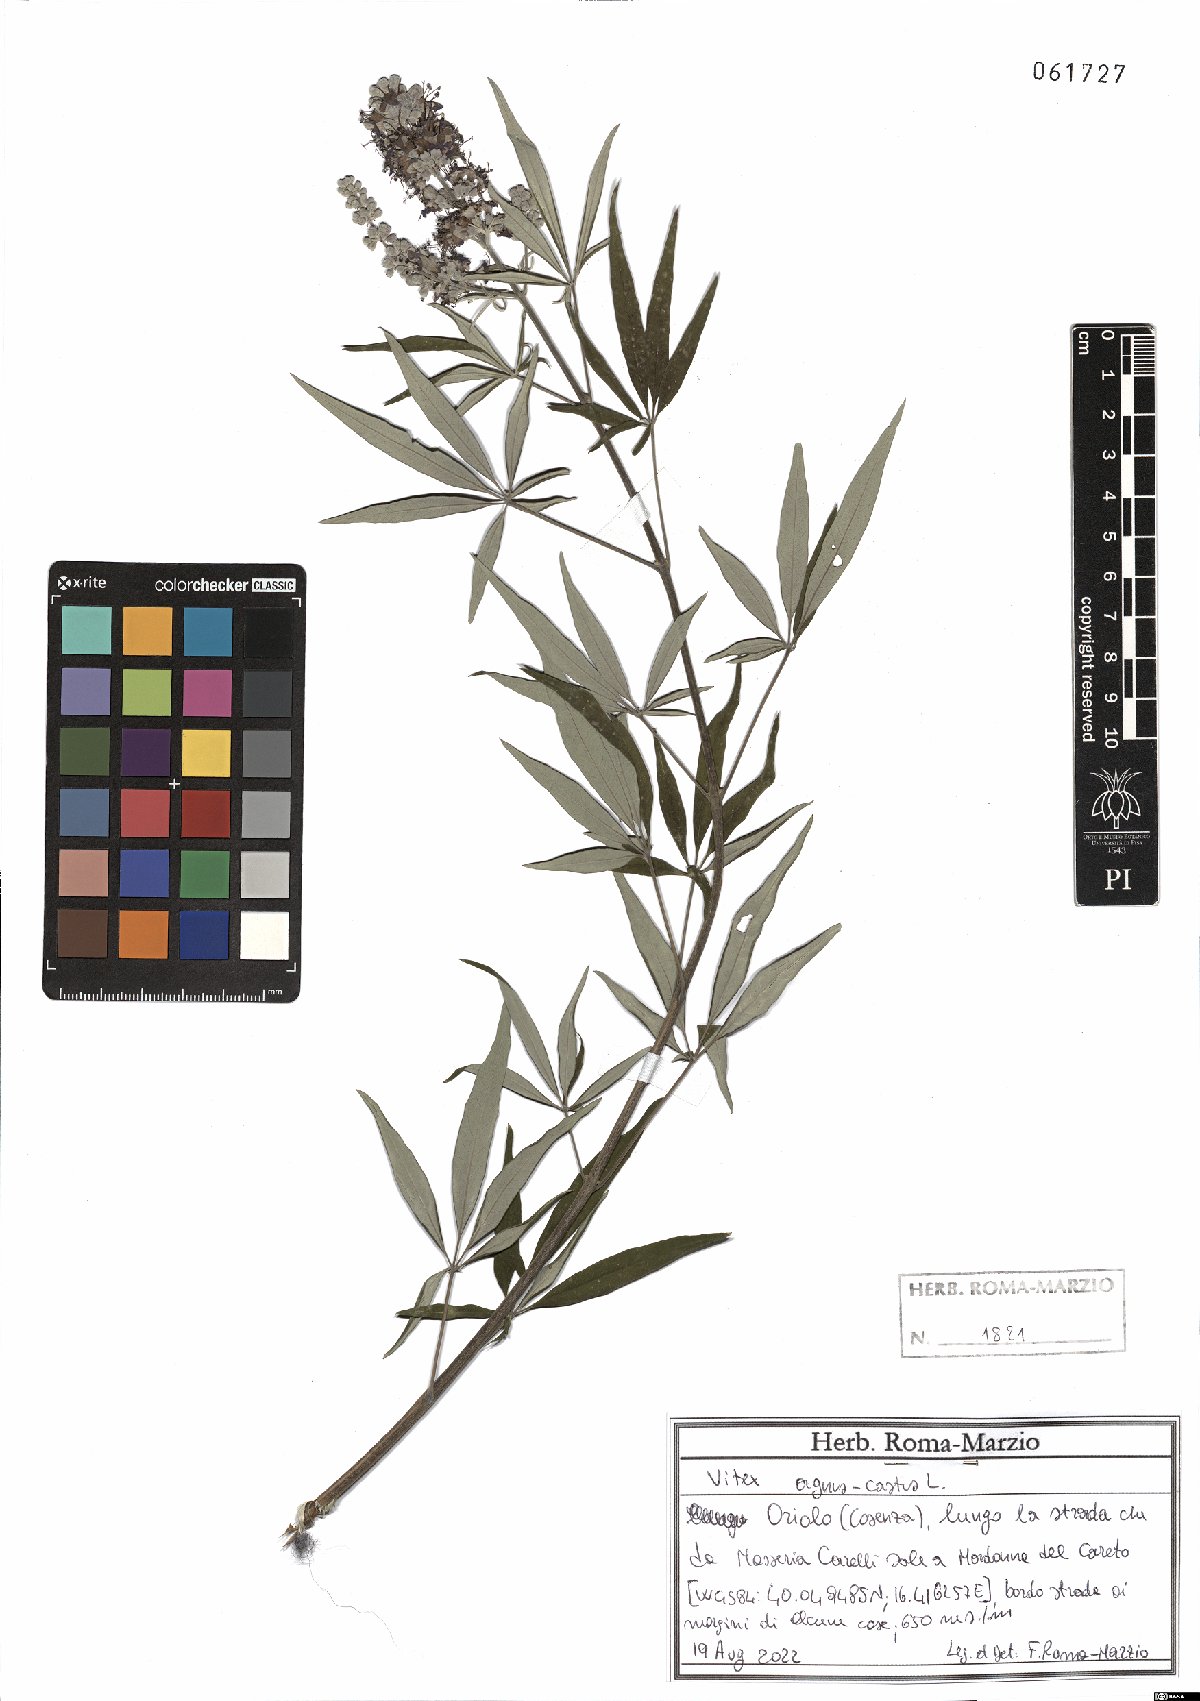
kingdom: Plantae
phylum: Tracheophyta
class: Magnoliopsida
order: Lamiales
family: Lamiaceae
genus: Vitex
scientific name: Vitex agnus-castus
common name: Chasteberry
